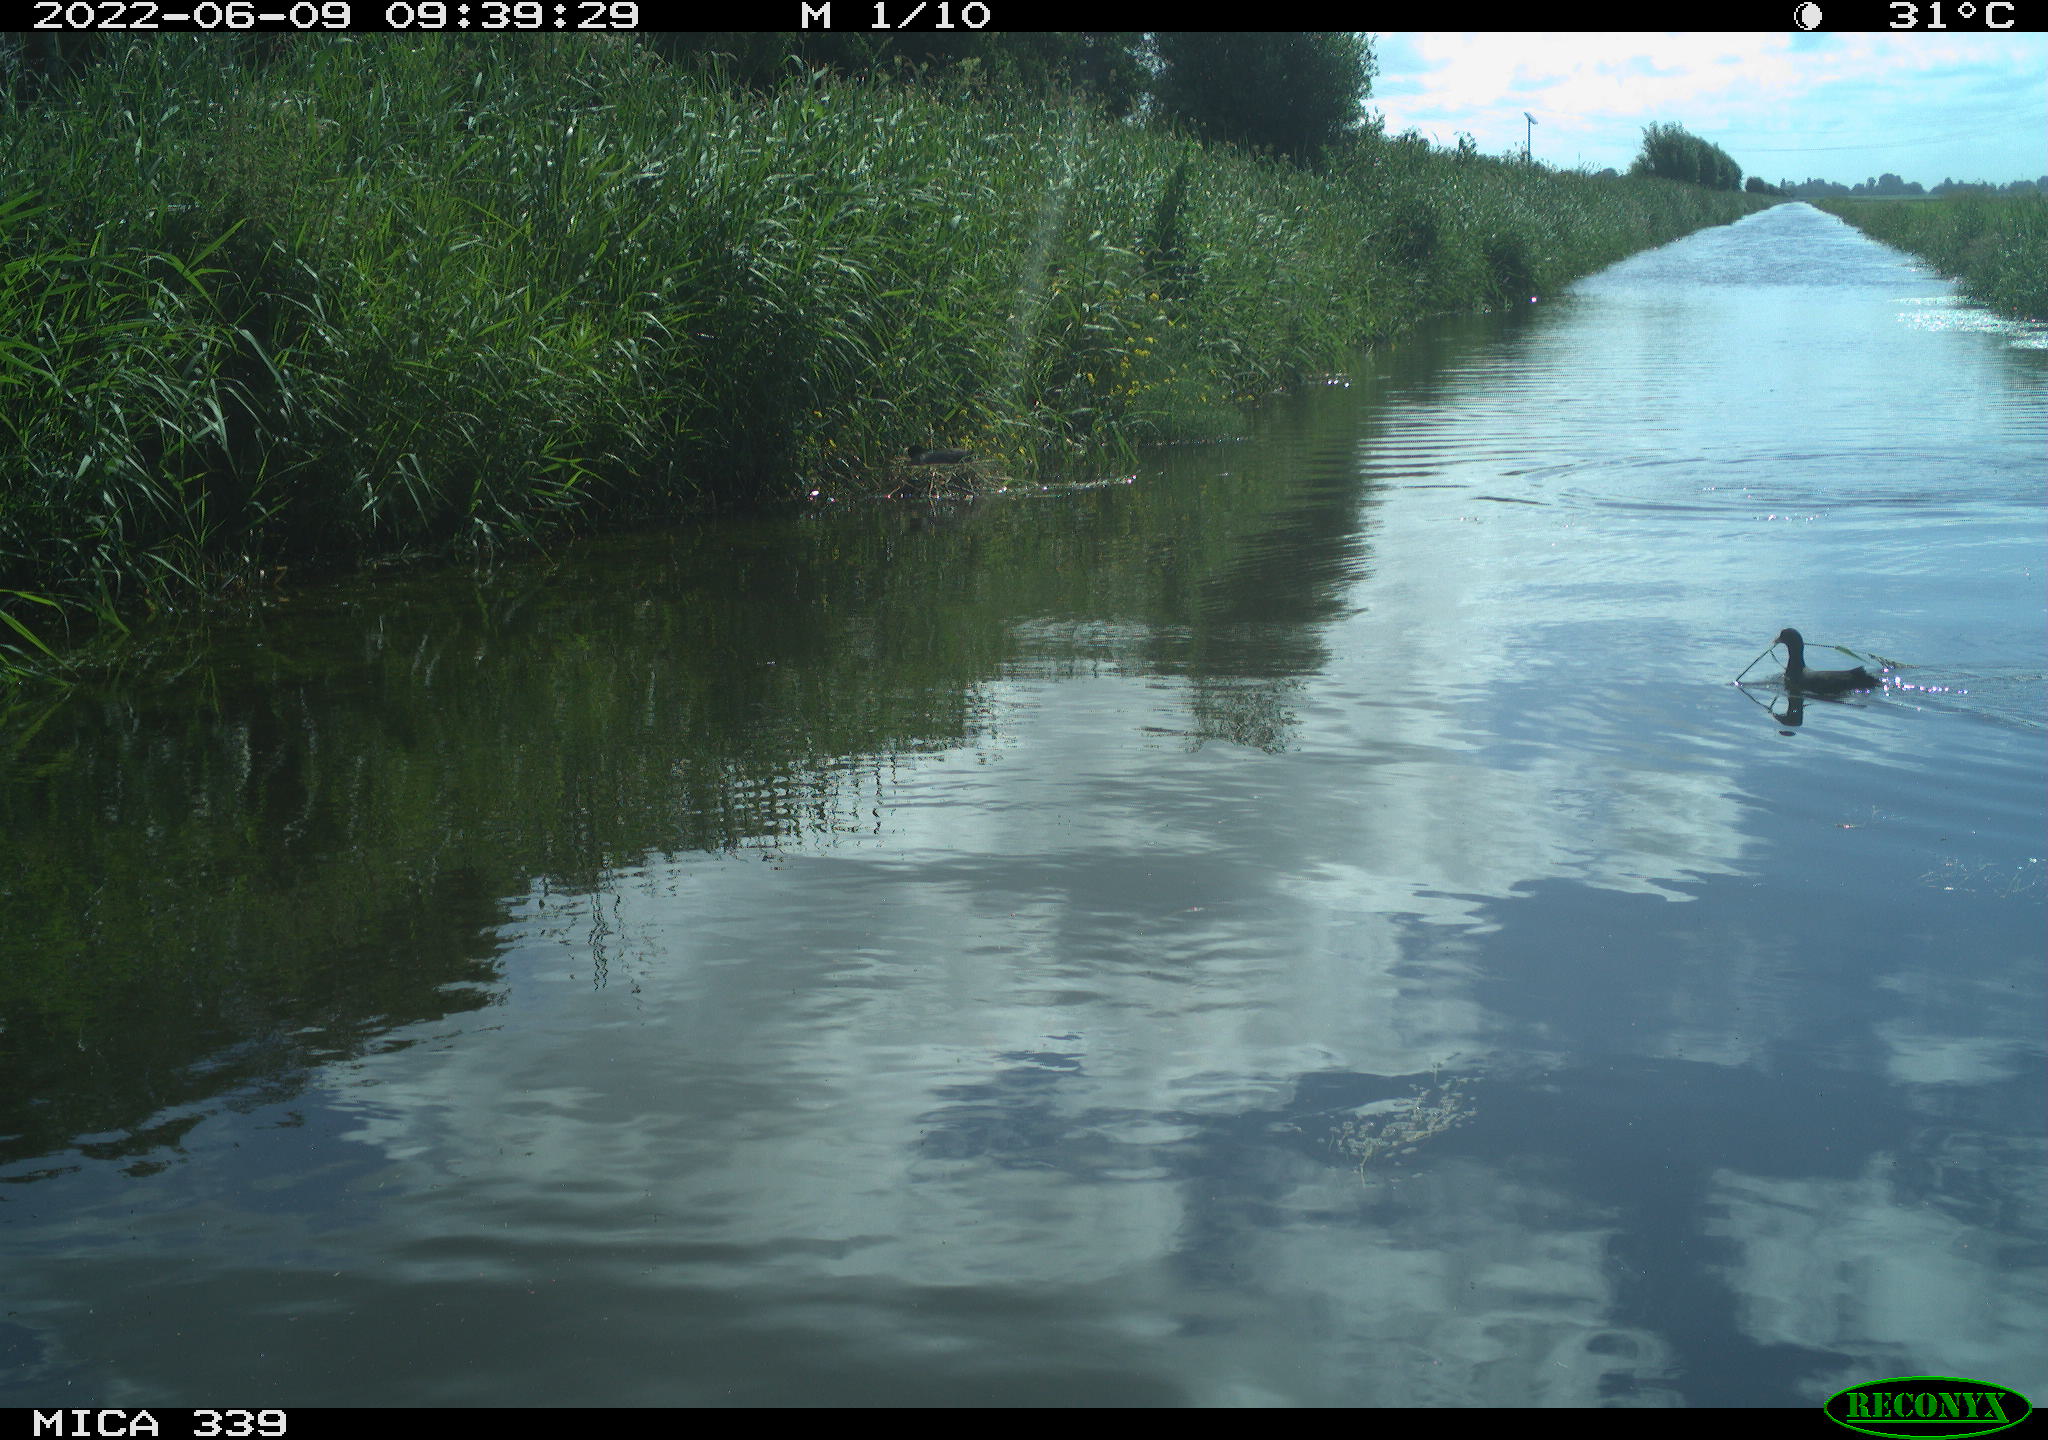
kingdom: Animalia
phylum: Chordata
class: Aves
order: Gruiformes
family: Rallidae
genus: Fulica
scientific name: Fulica atra
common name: Eurasian coot
